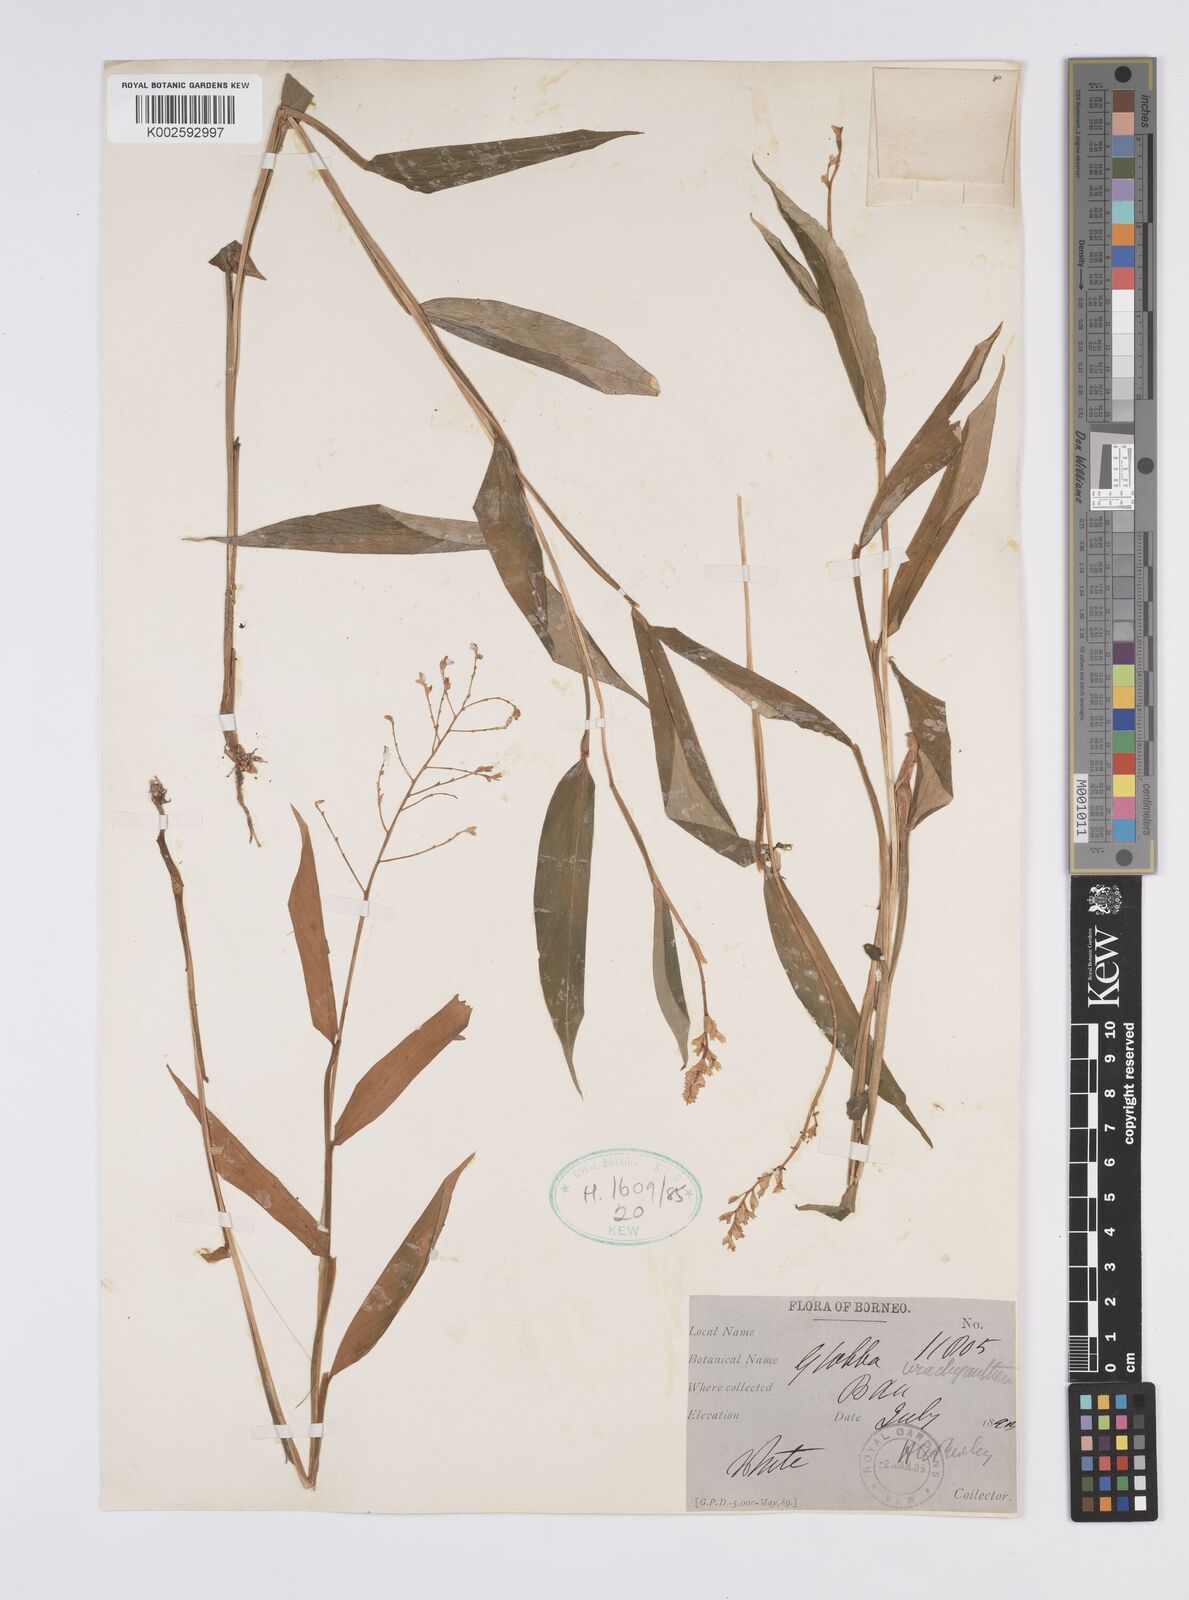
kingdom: Plantae
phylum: Tracheophyta
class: Liliopsida
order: Zingiberales
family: Zingiberaceae
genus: Globba
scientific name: Globba brachyanthera
